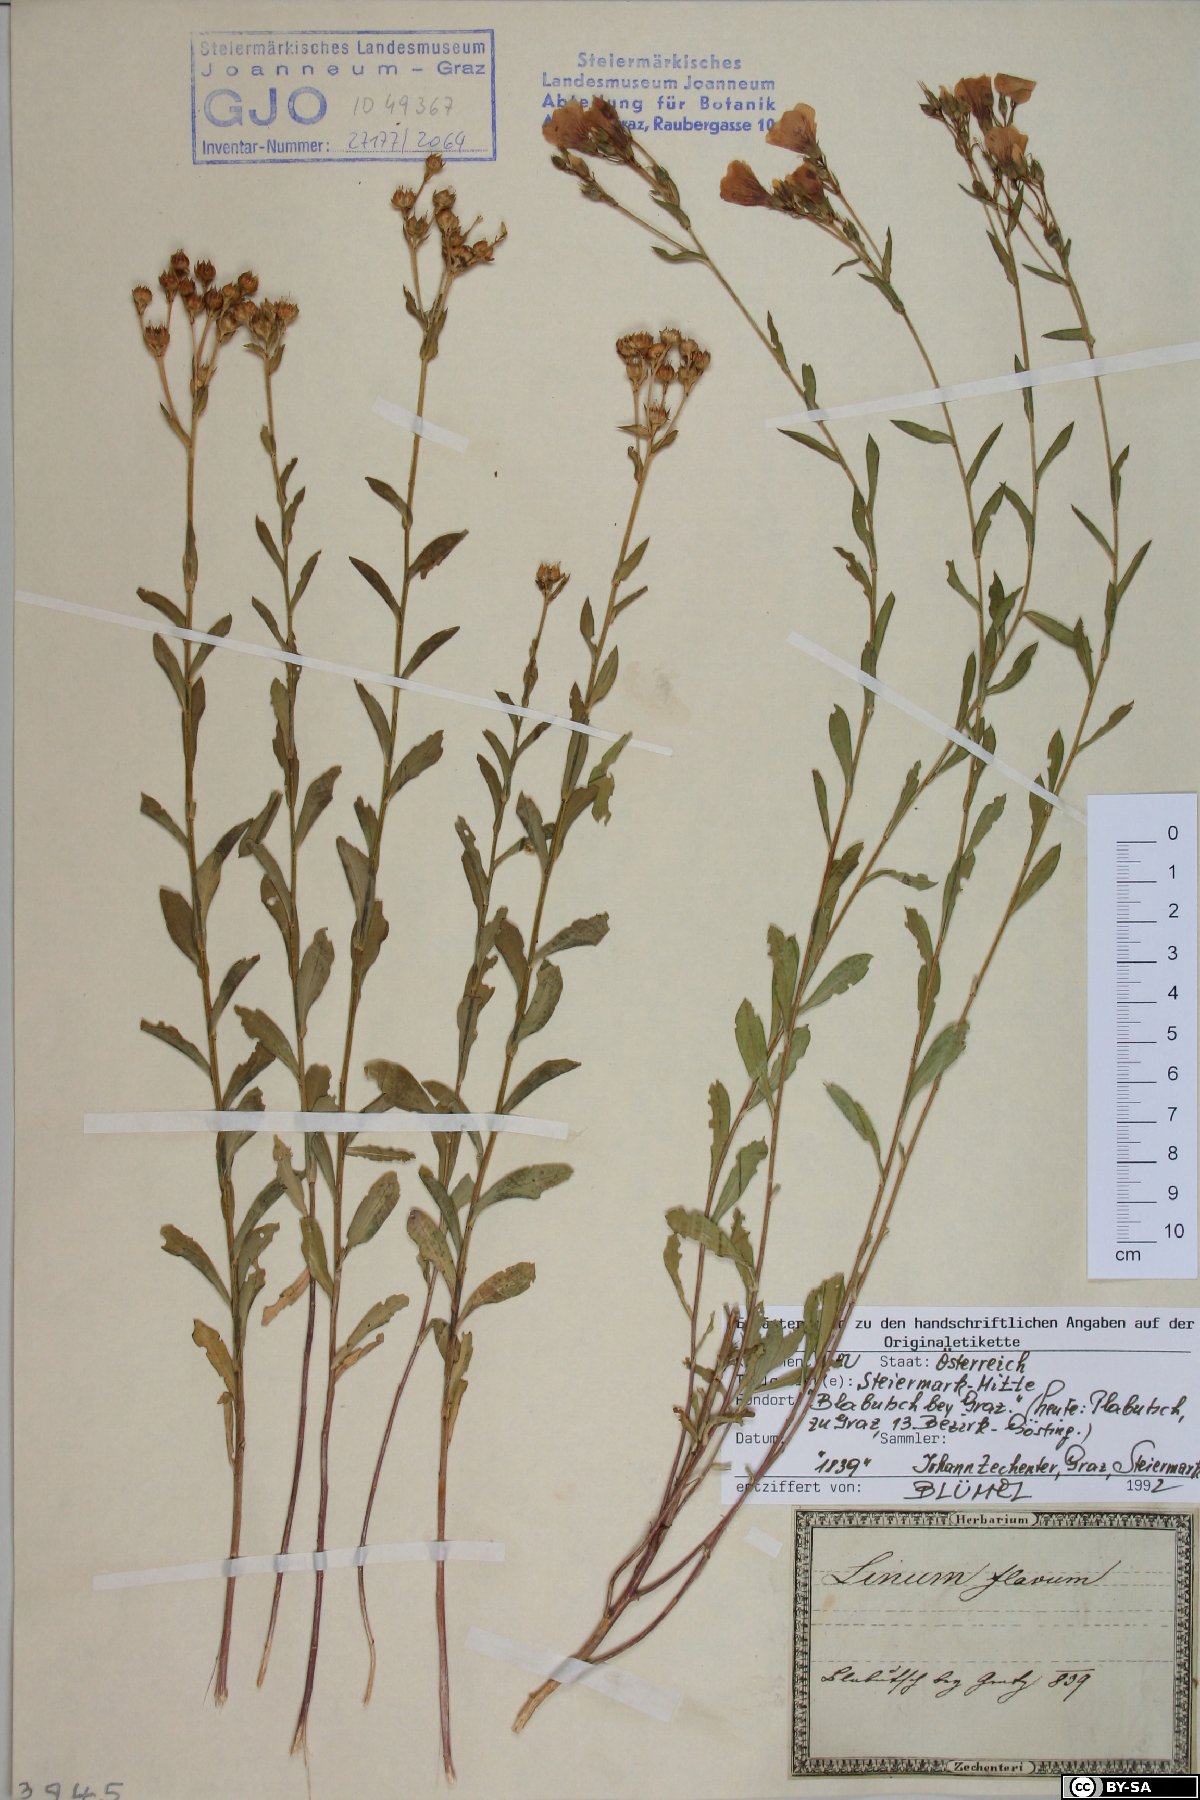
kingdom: Plantae
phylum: Tracheophyta
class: Magnoliopsida
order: Malpighiales
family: Linaceae
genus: Linum
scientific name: Linum flavum
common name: Yellow flax
